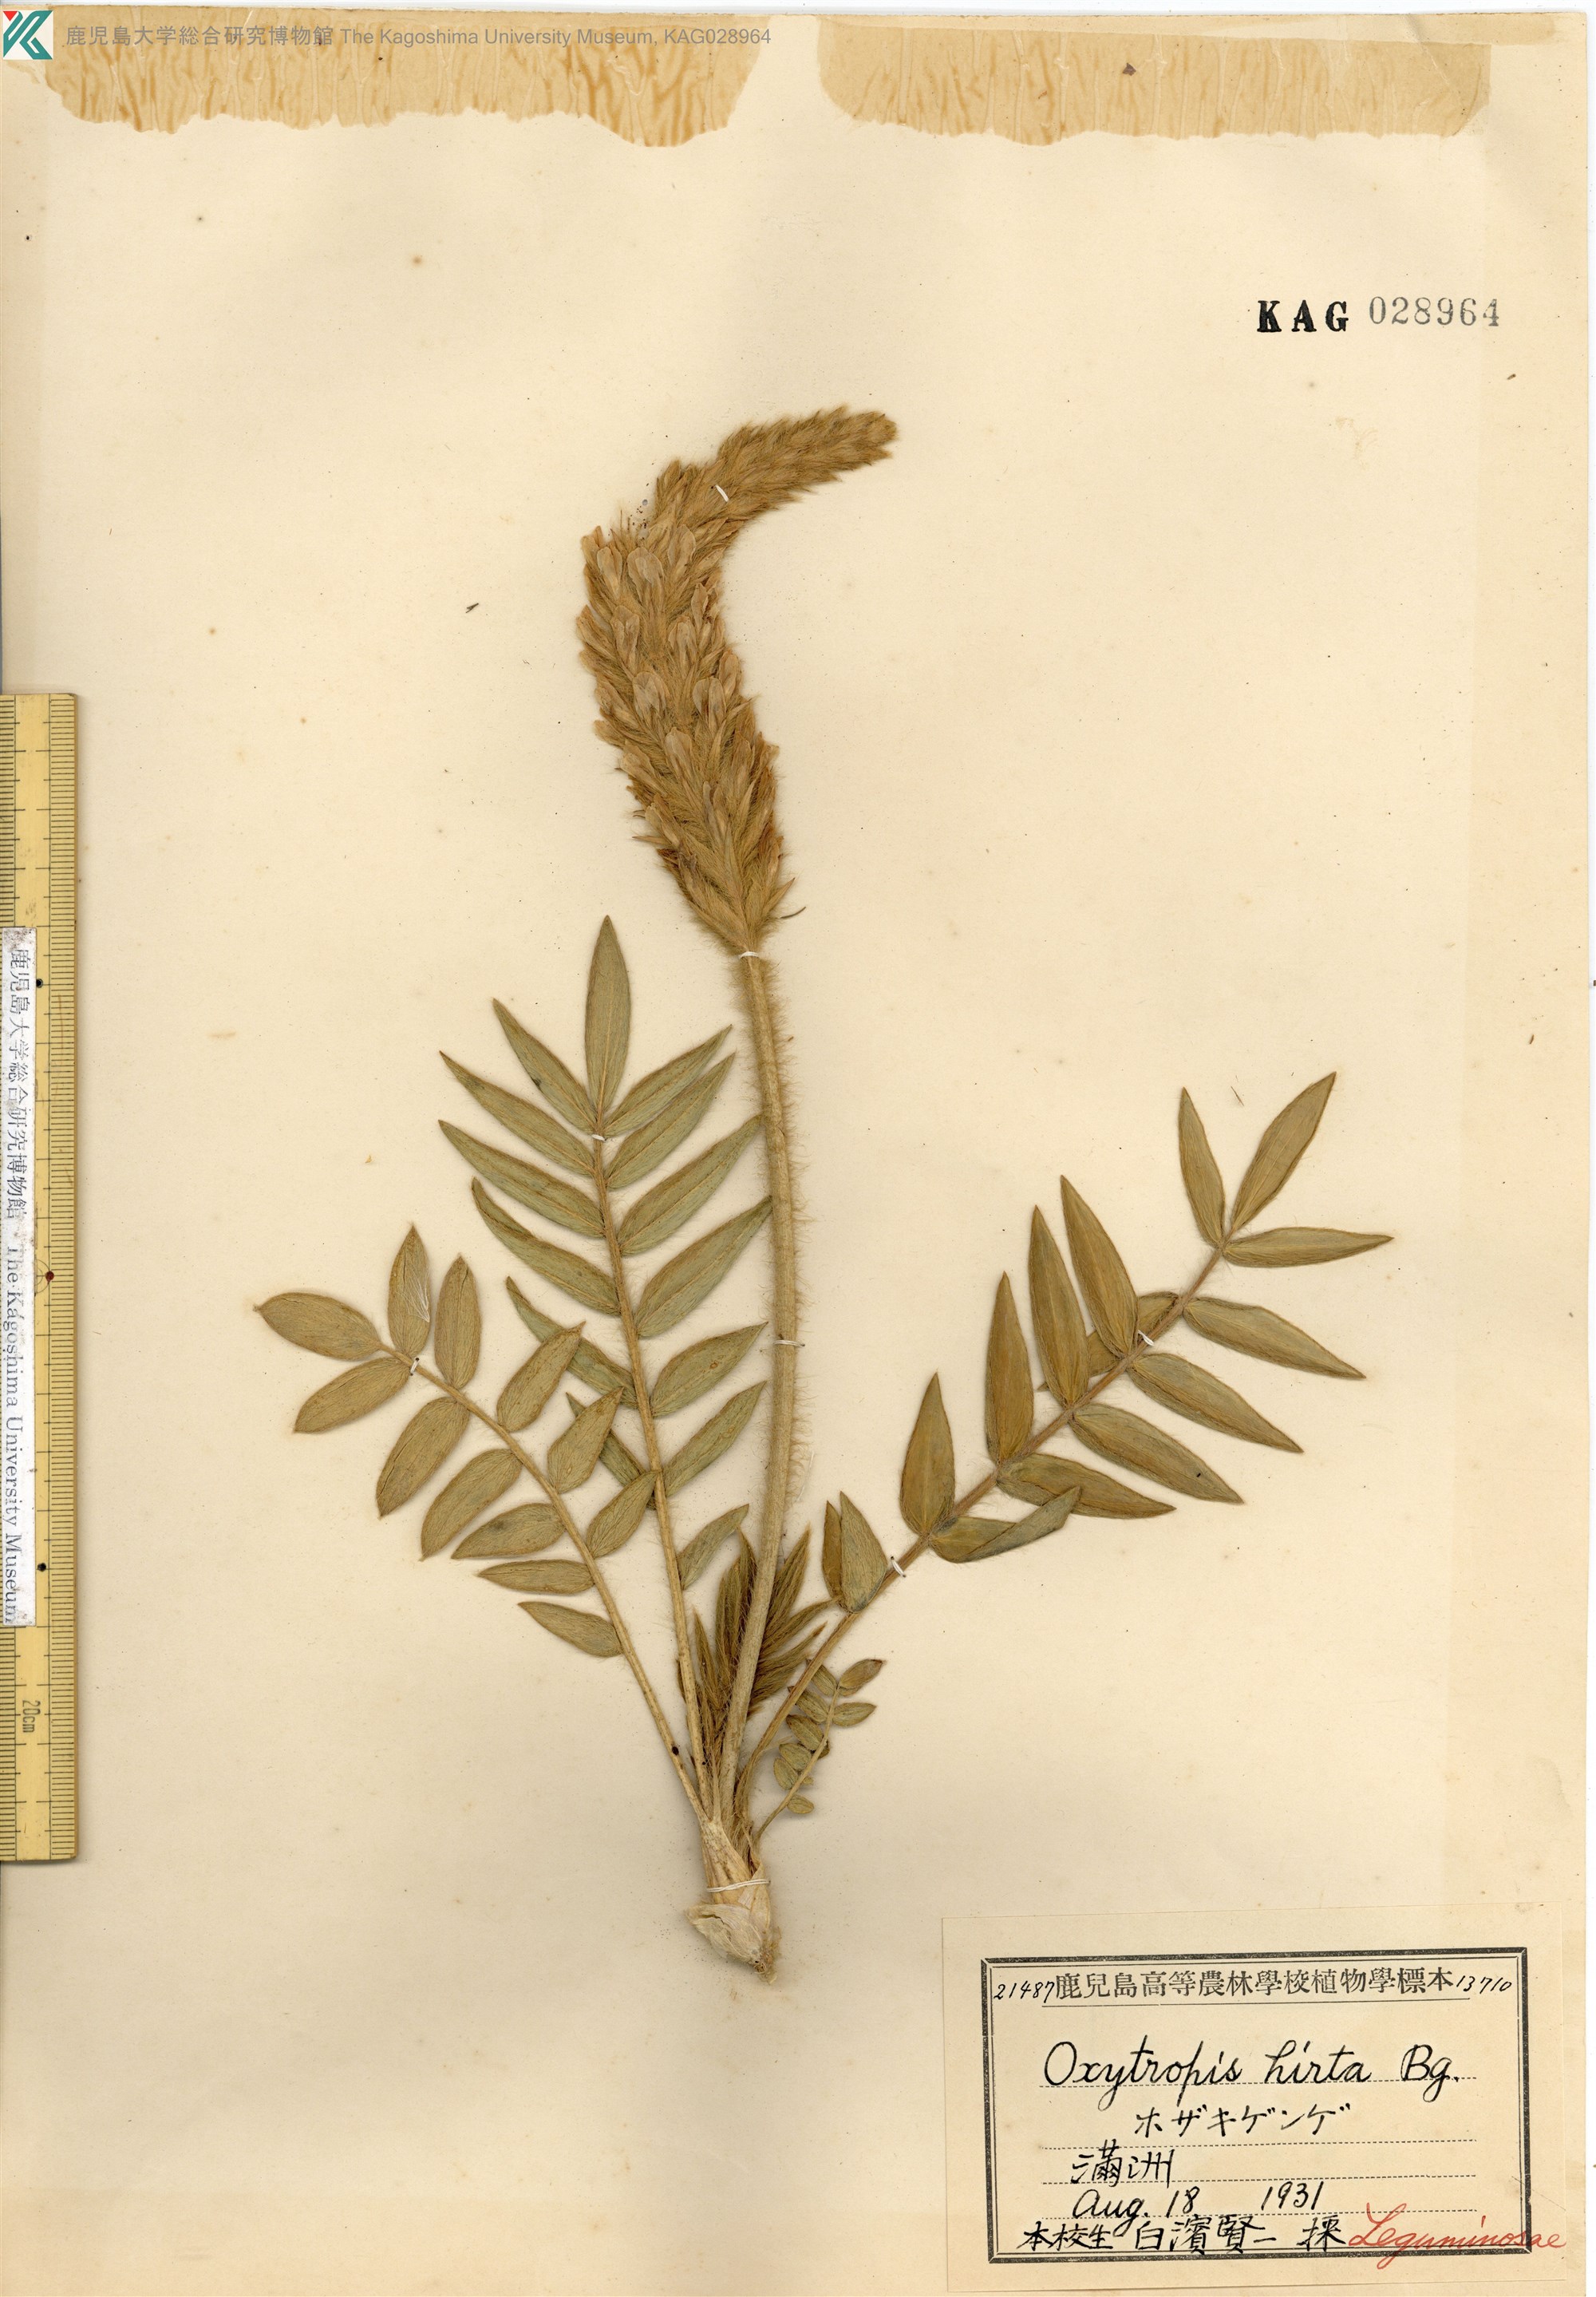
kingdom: Plantae
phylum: Tracheophyta
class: Magnoliopsida
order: Fabales
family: Fabaceae
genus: Oxytropis
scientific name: Oxytropis hirta
